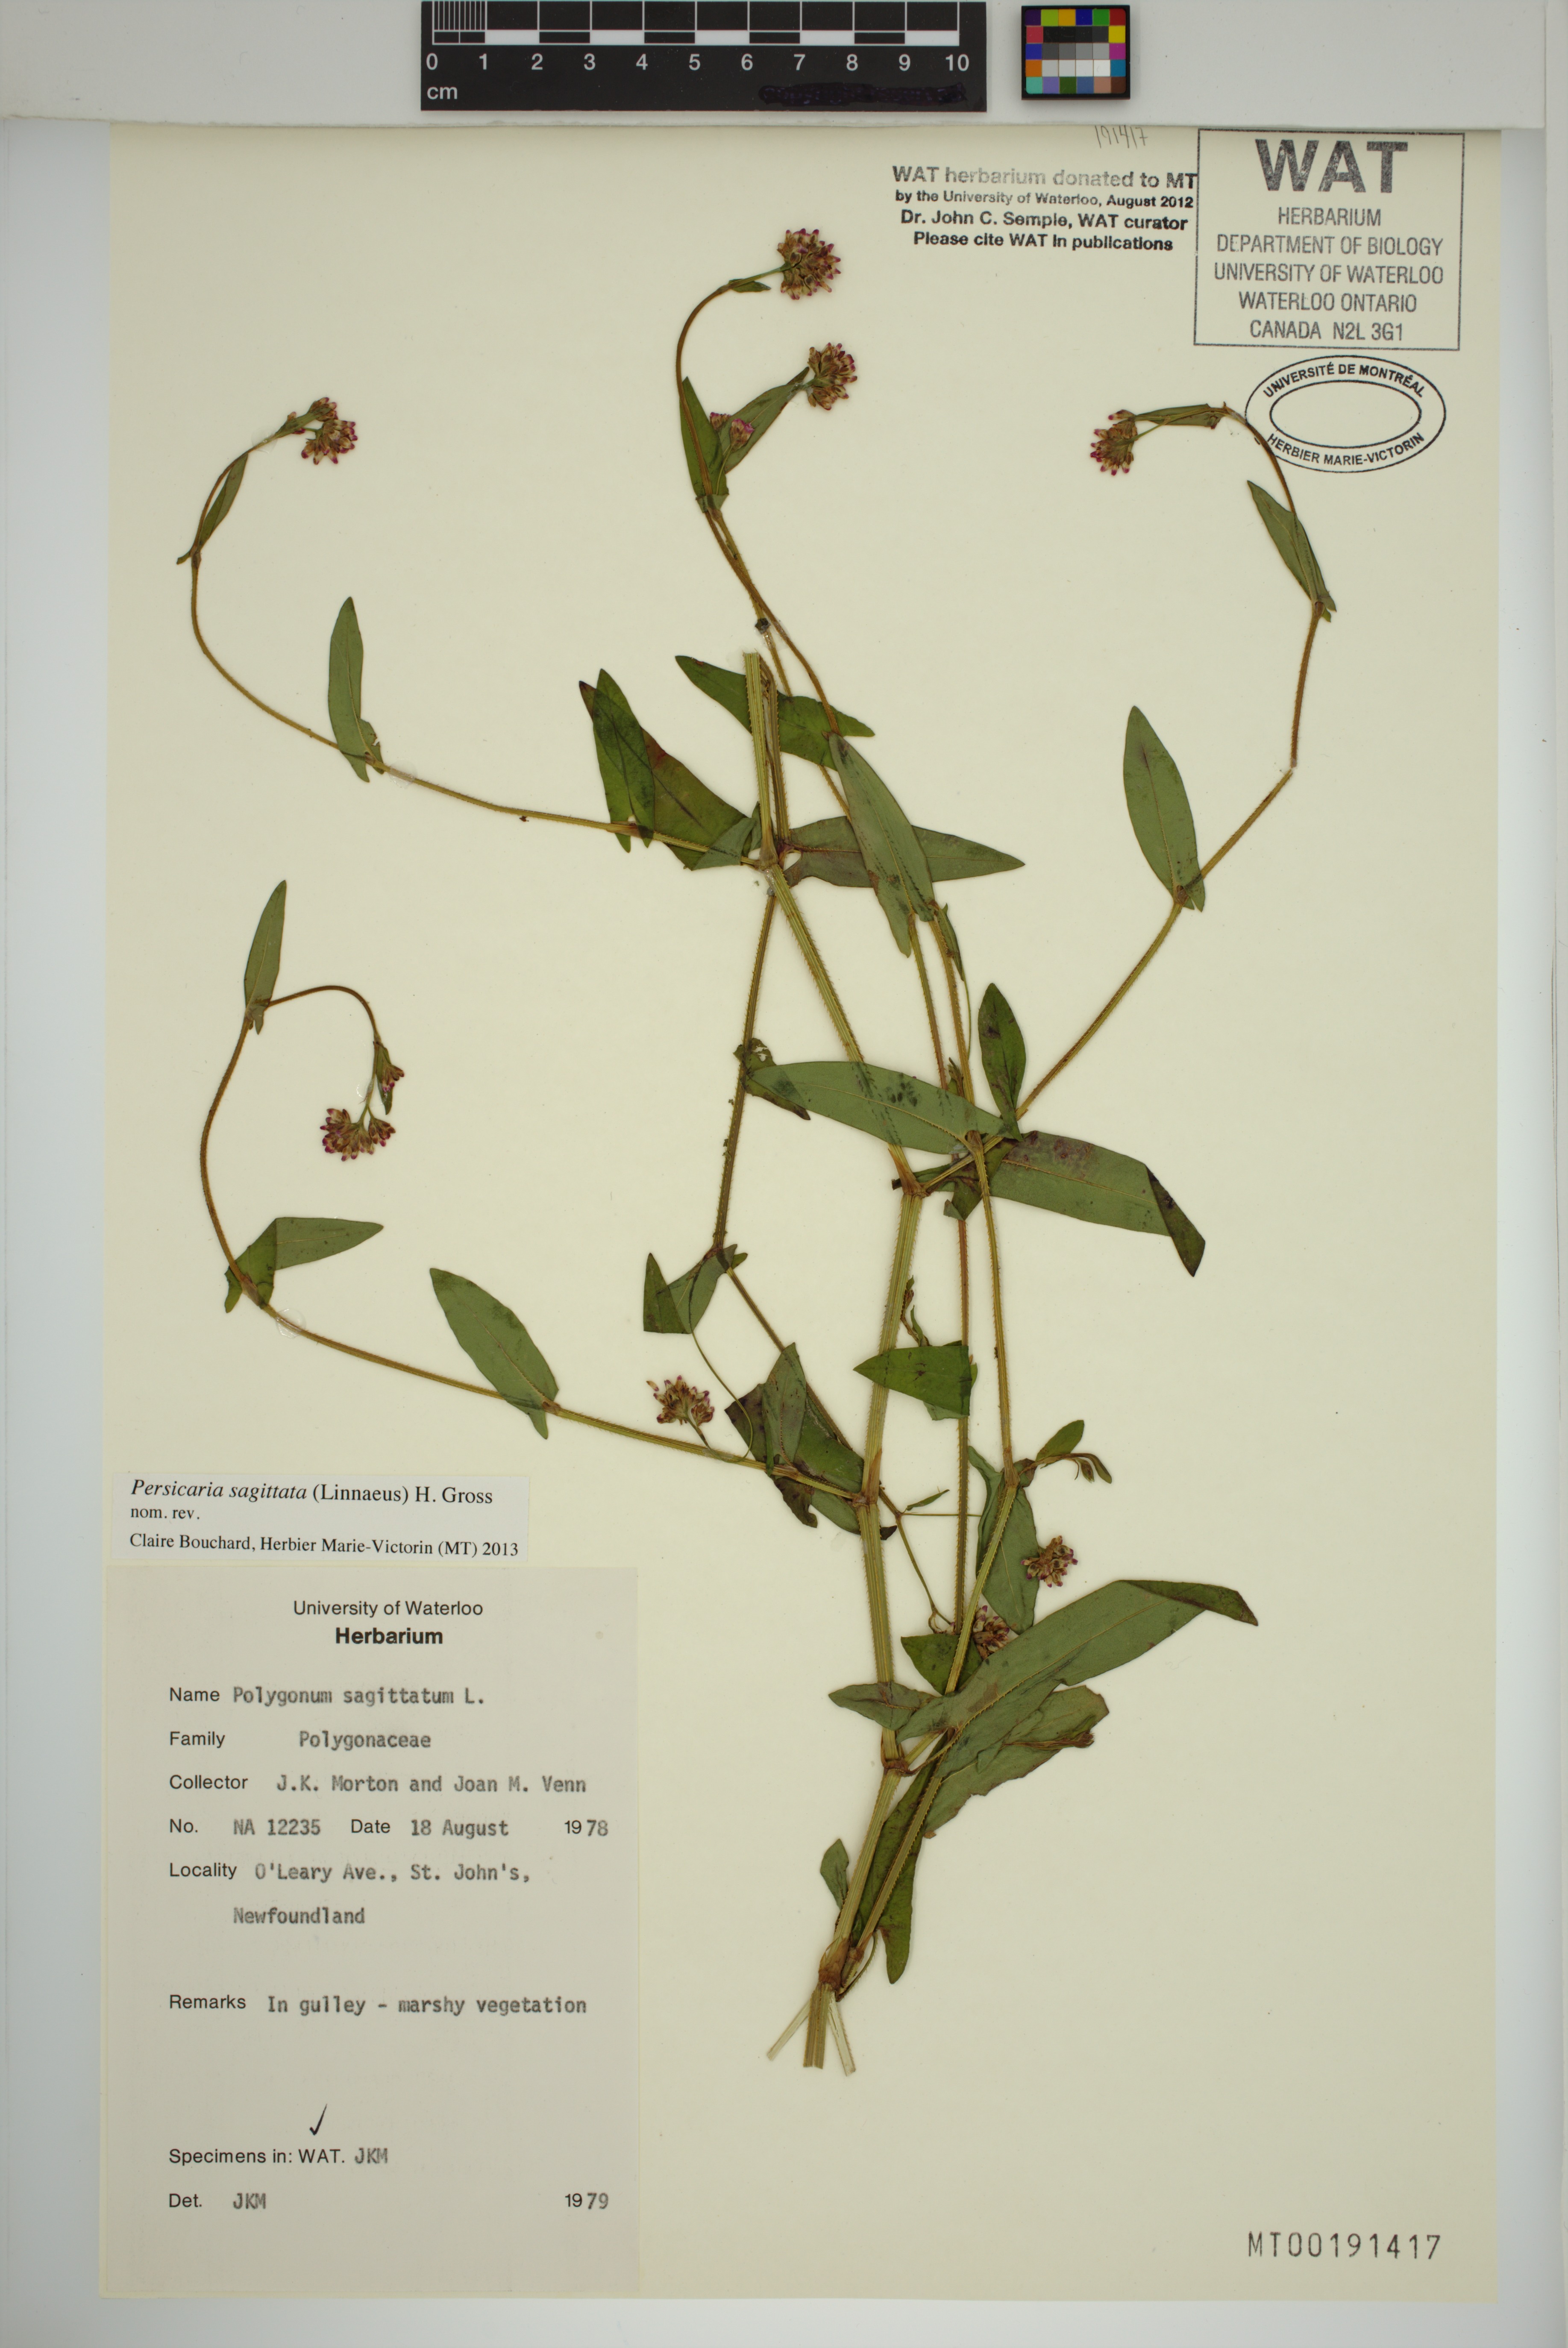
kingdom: Plantae
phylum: Tracheophyta
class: Magnoliopsida
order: Caryophyllales
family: Polygonaceae
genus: Persicaria
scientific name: Persicaria sagittata
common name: American tearthumb
